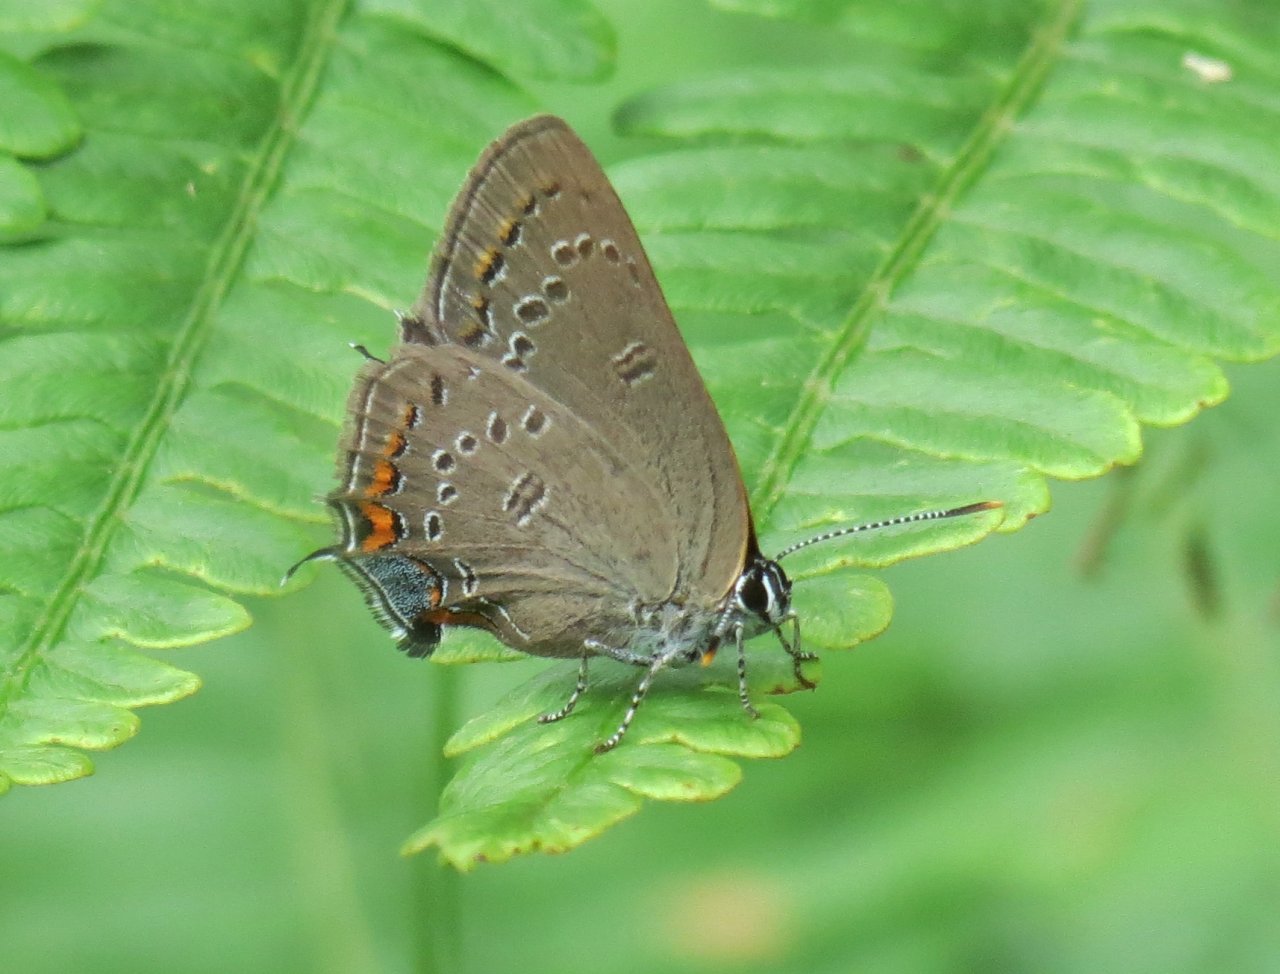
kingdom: Animalia
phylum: Arthropoda
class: Insecta
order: Lepidoptera
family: Lycaenidae
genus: Satyrium
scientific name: Satyrium edwardsii
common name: Edwards' Hairstreak
